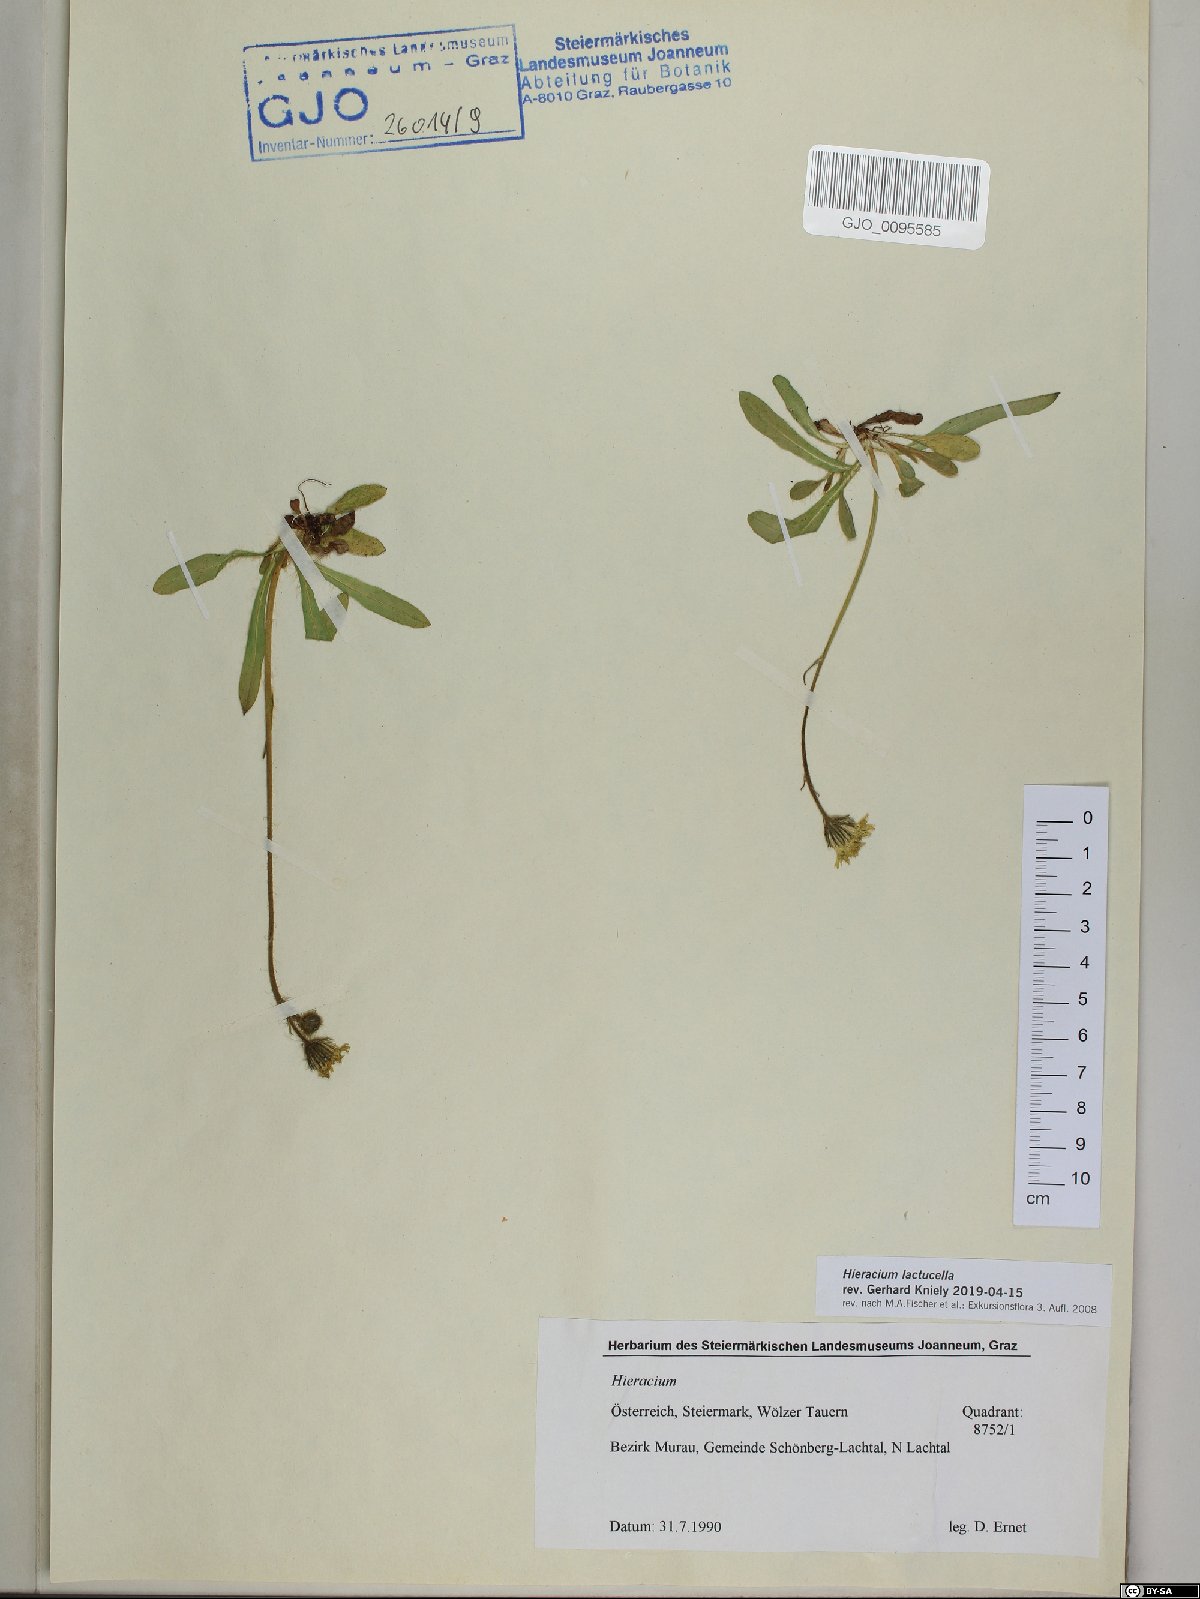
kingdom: Plantae
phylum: Tracheophyta
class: Magnoliopsida
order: Asterales
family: Asteraceae
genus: Pilosella
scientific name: Pilosella lactucella
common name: Glaucous fox-and-cubs
